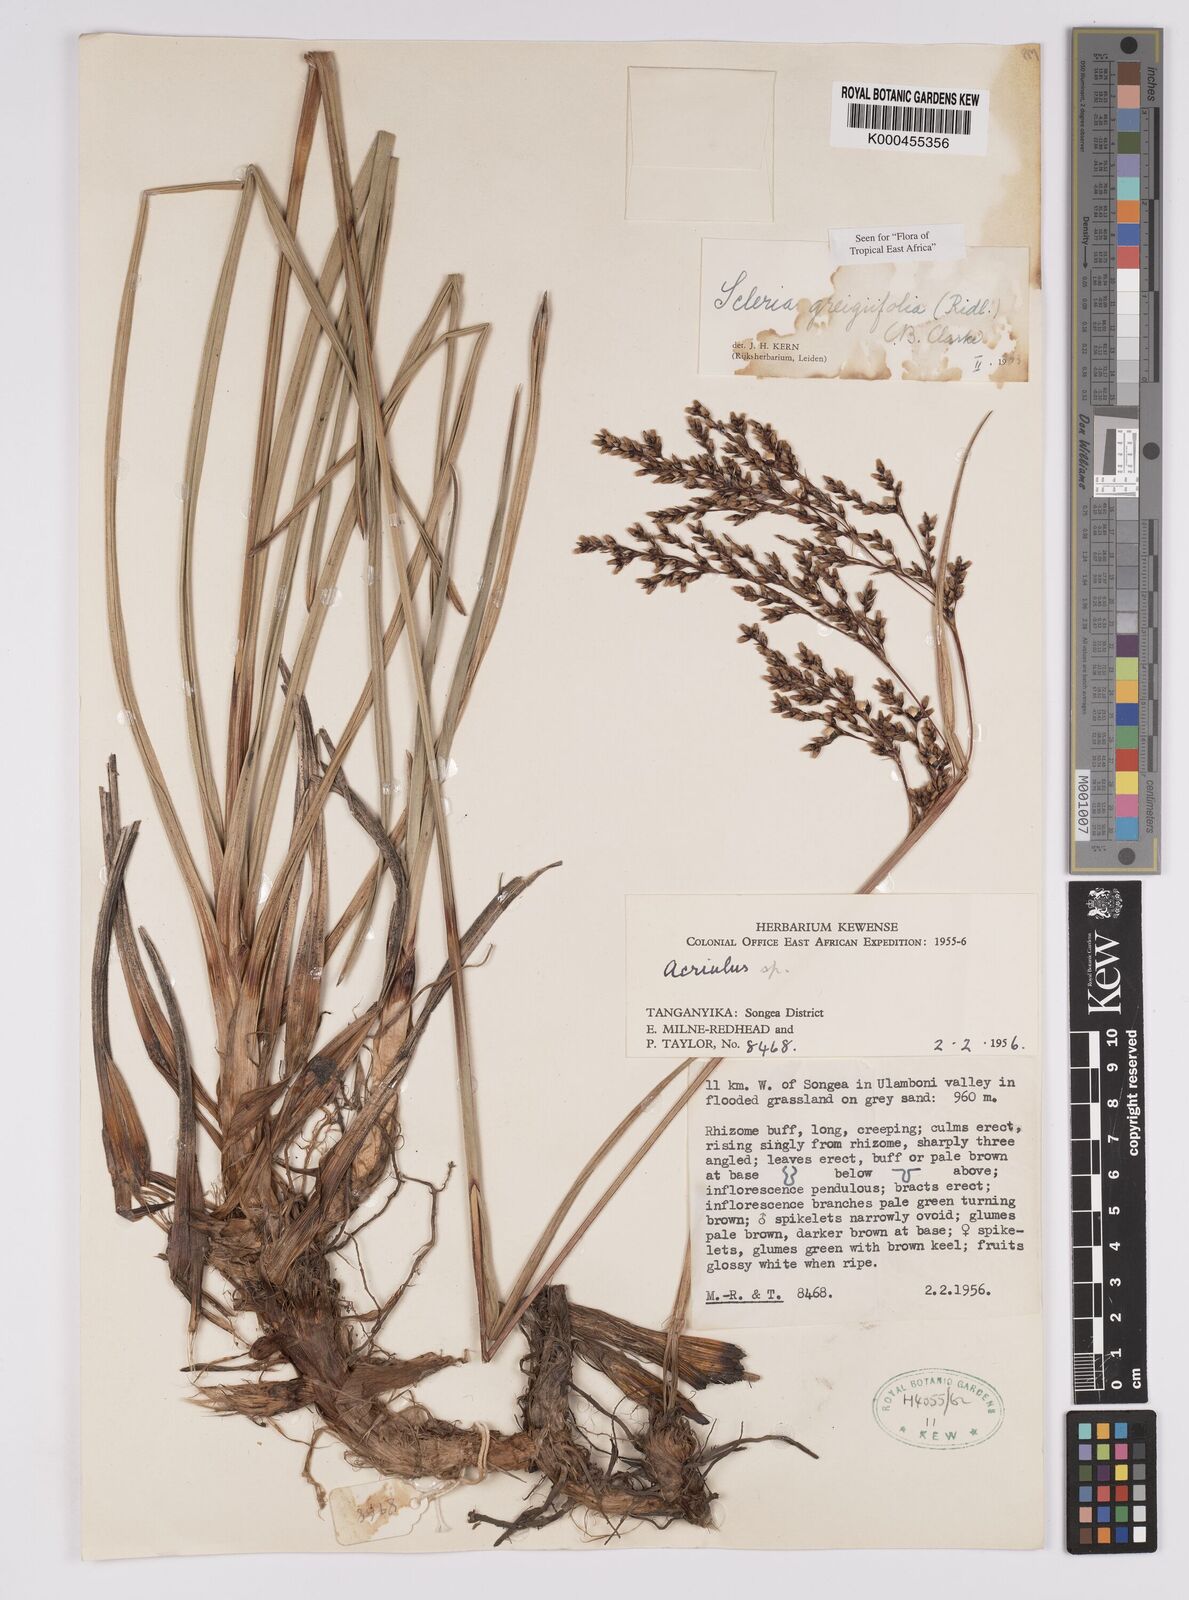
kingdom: Plantae
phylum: Tracheophyta
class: Liliopsida
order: Poales
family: Cyperaceae
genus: Scleria
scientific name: Scleria greigiifolia
